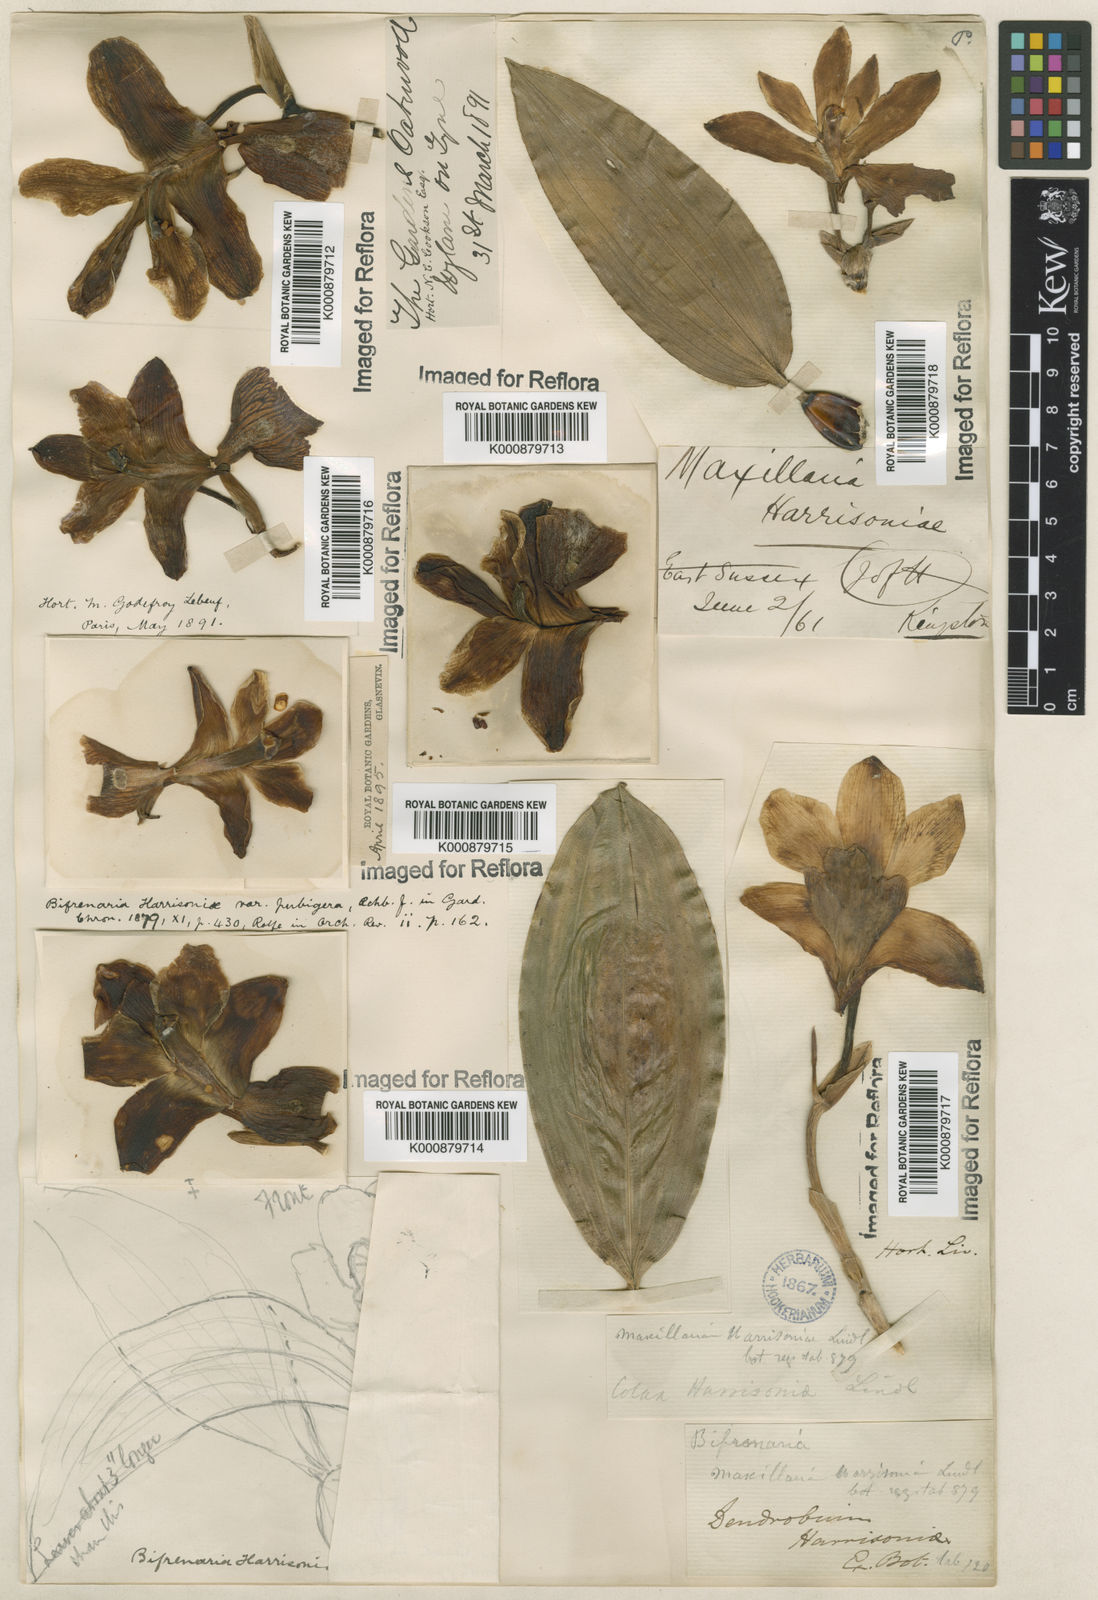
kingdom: Plantae
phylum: Tracheophyta
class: Liliopsida
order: Asparagales
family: Orchidaceae
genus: Bifrenaria
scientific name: Bifrenaria harrisoniae
